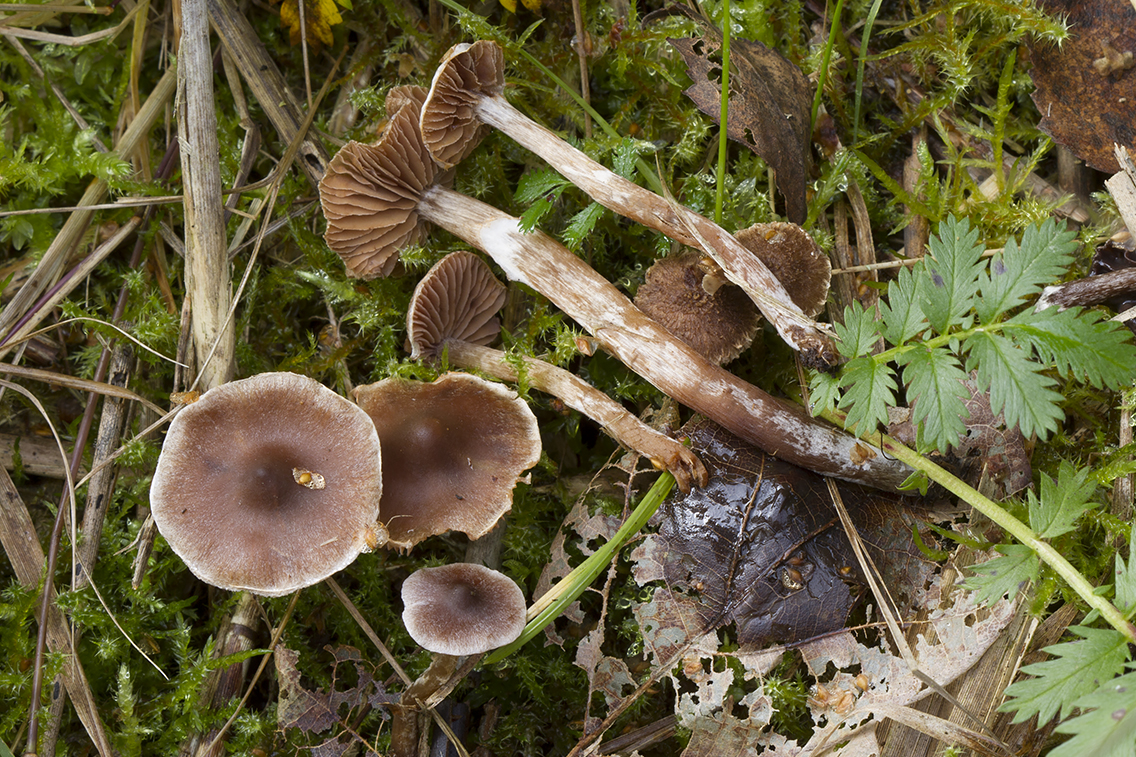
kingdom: Fungi
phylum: Basidiomycota
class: Agaricomycetes
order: Agaricales
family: Cortinariaceae
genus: Cortinarius
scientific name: Cortinarius
